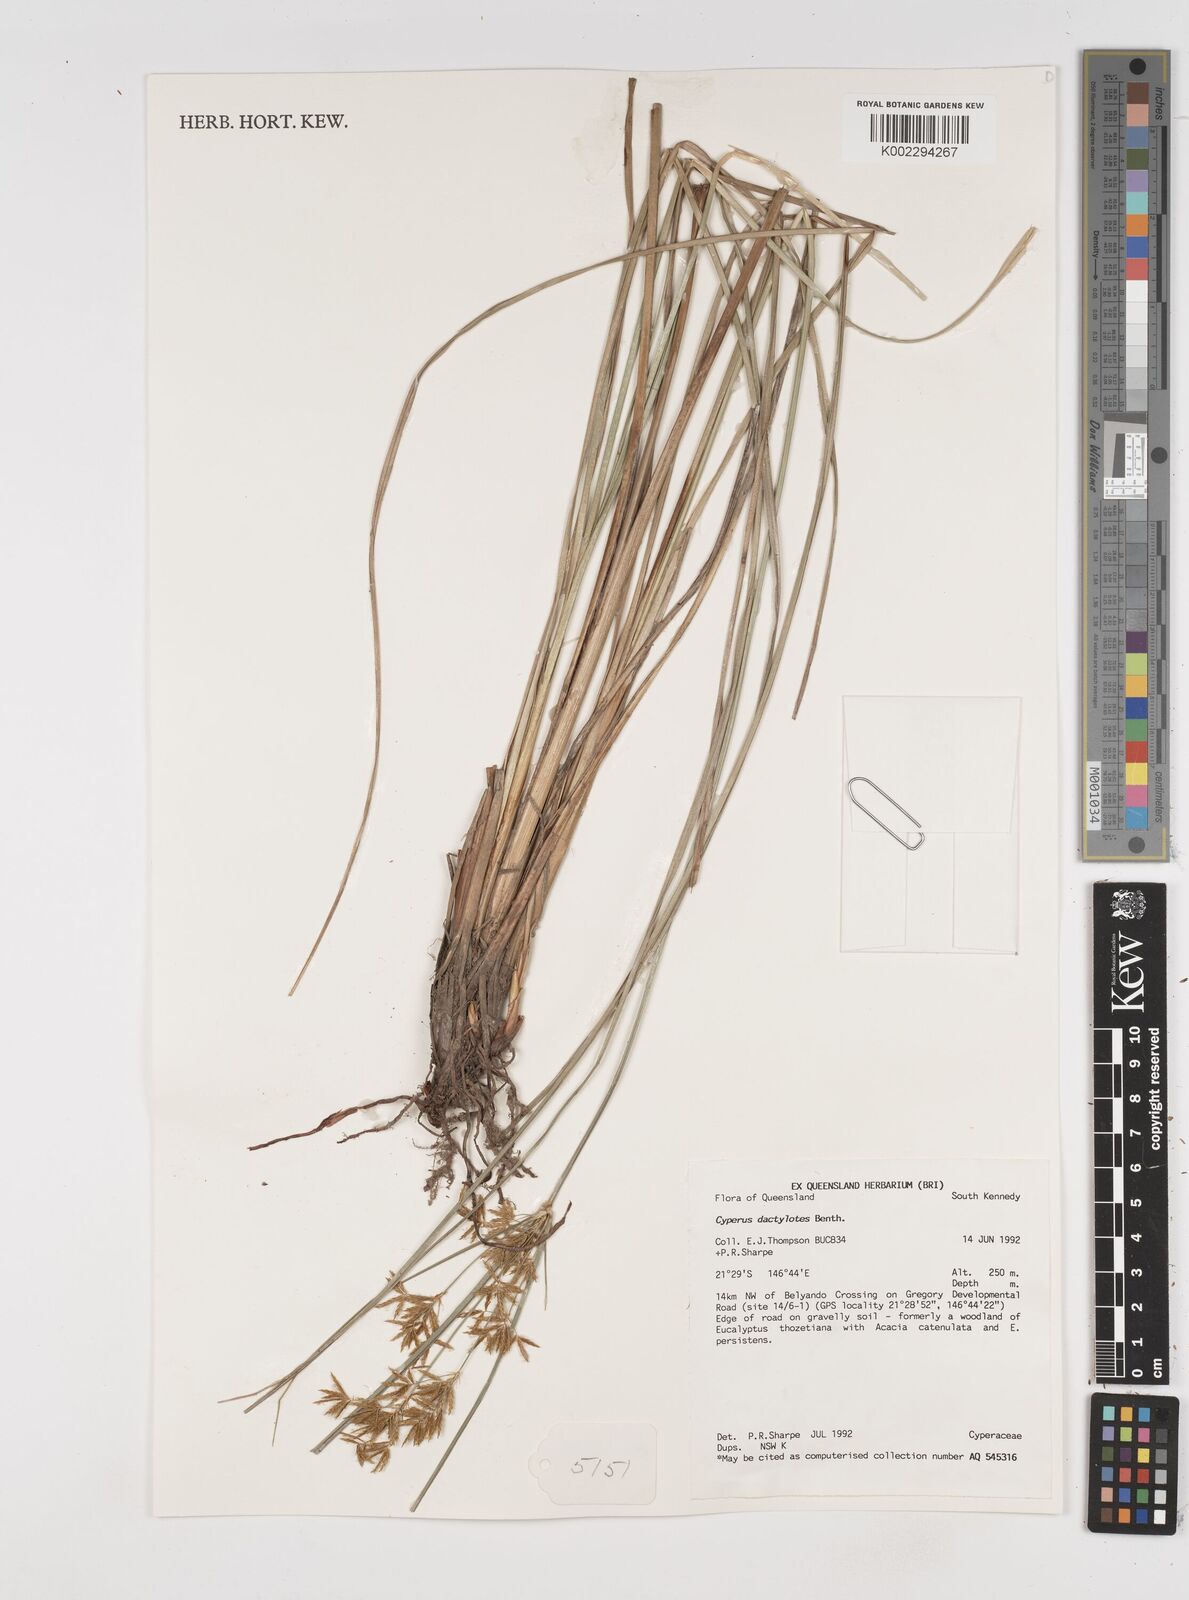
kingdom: Plantae
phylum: Tracheophyta
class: Liliopsida
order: Poales
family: Cyperaceae
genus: Cyperus
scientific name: Cyperus dactylotes
